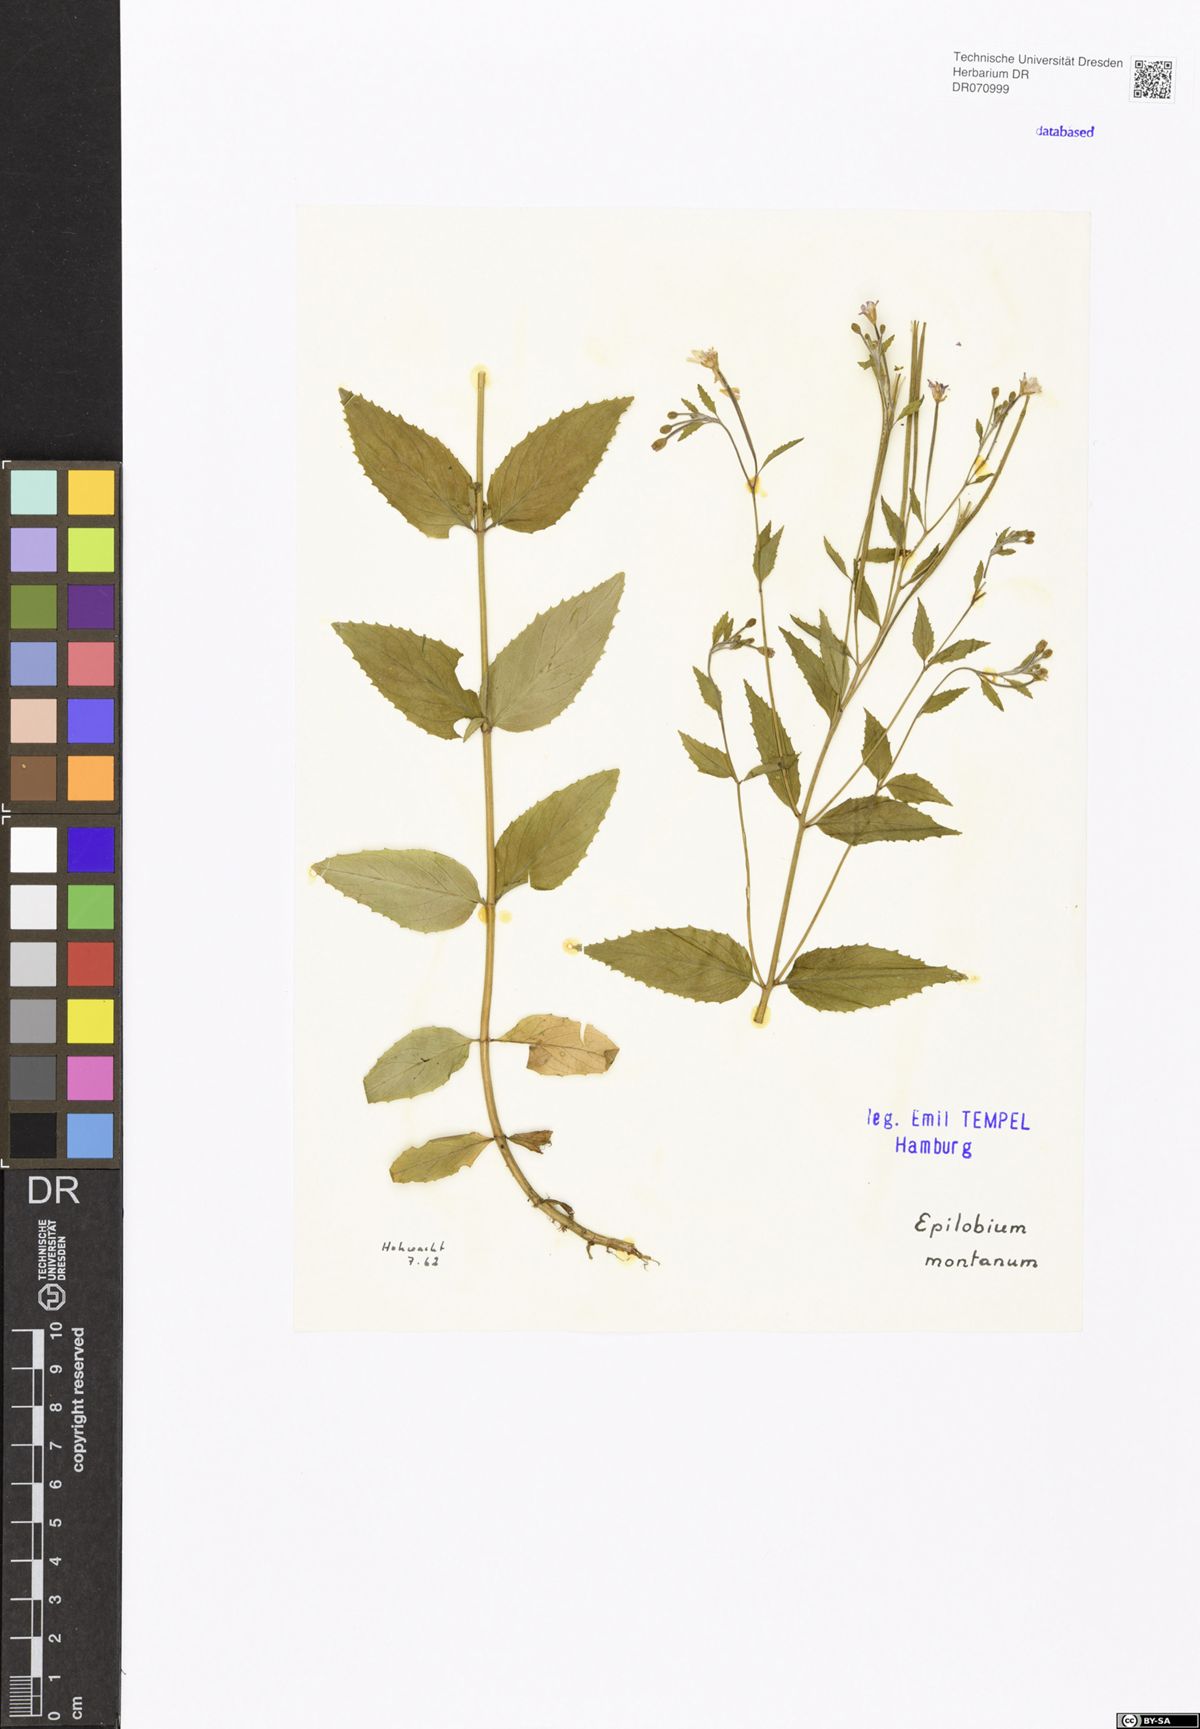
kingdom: Plantae
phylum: Tracheophyta
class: Magnoliopsida
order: Myrtales
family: Onagraceae
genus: Epilobium
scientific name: Epilobium montanum
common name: Broad-leaved willowherb
